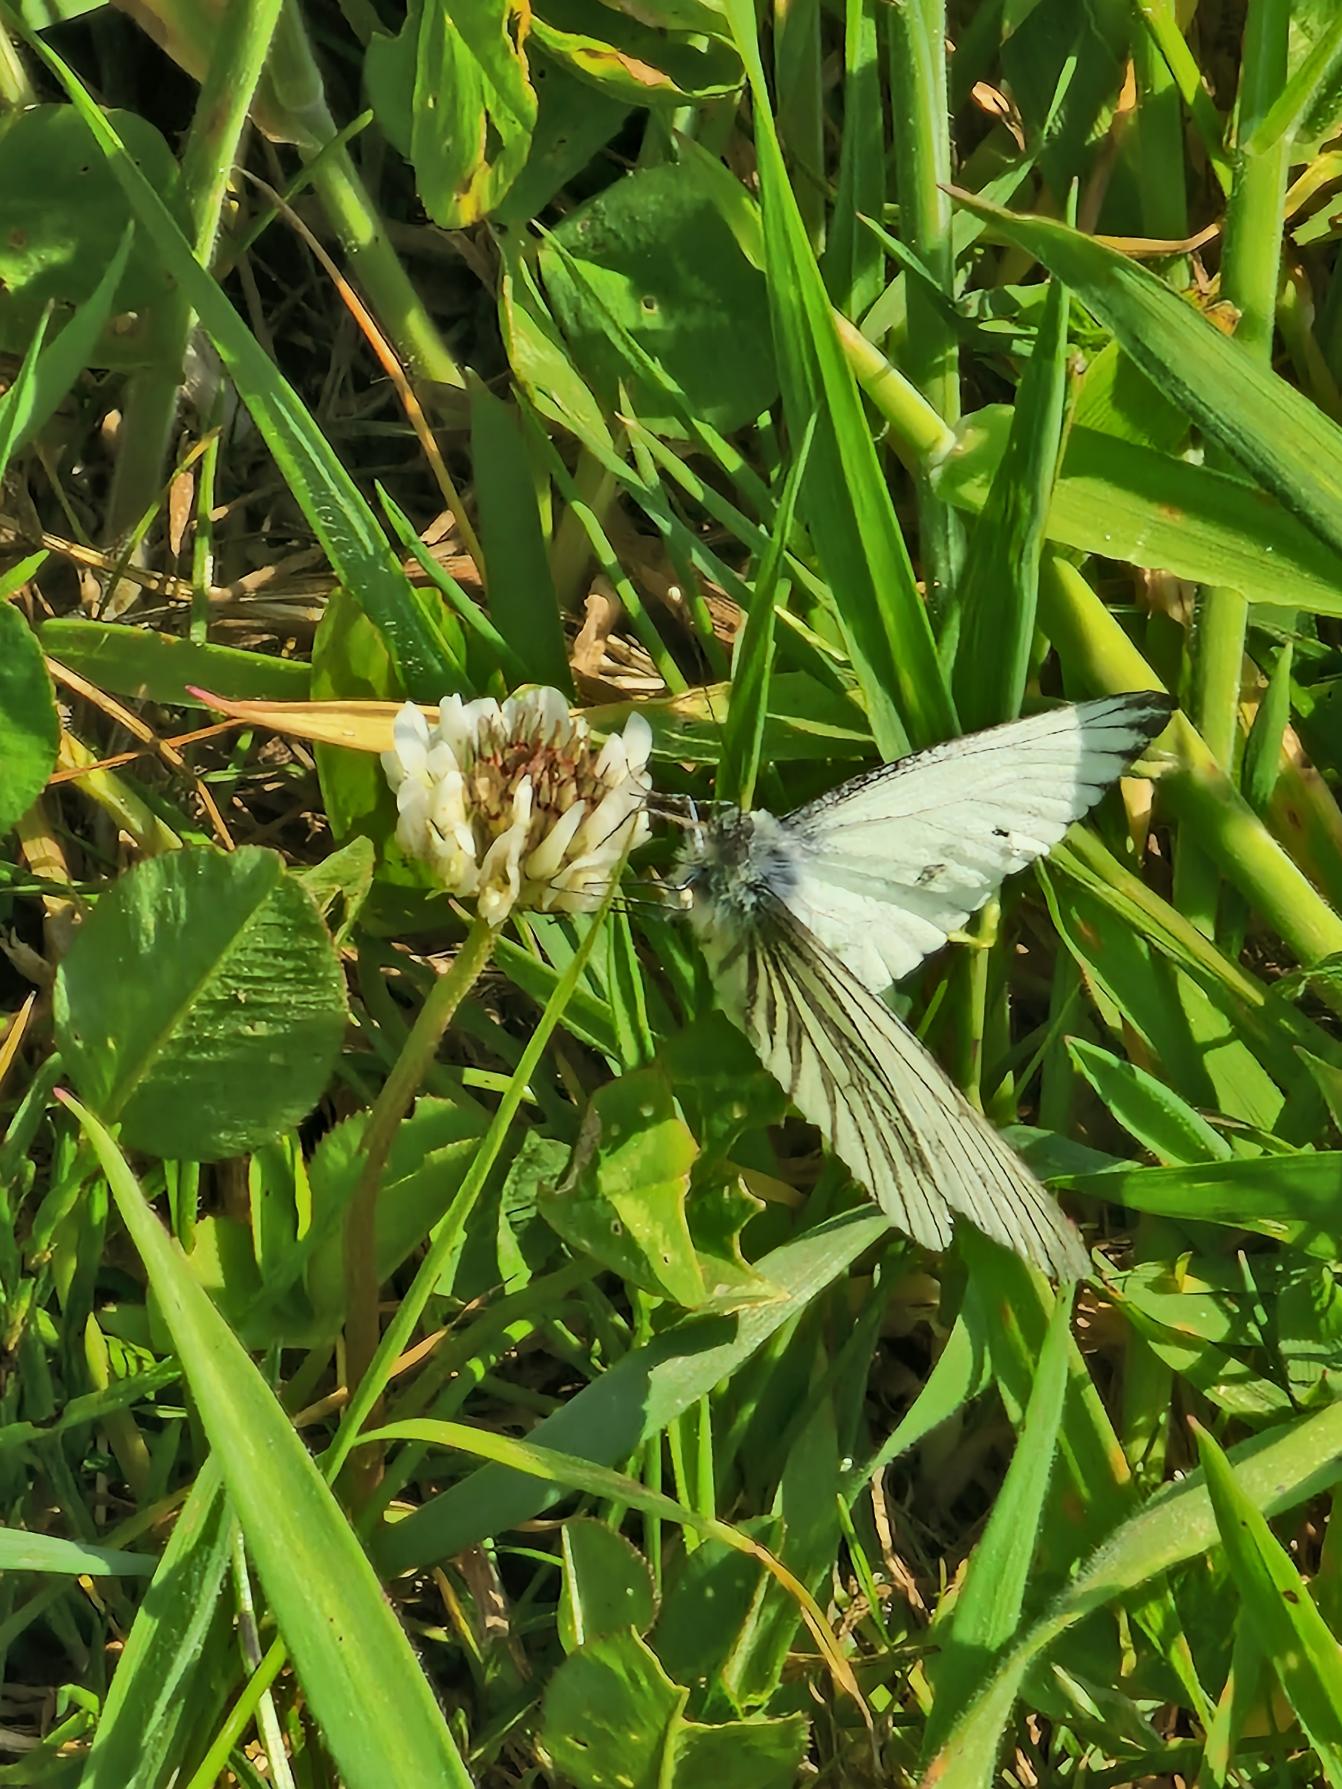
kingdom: Animalia
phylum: Arthropoda
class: Insecta
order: Lepidoptera
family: Pieridae
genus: Pieris
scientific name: Pieris napi
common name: Grønåret kålsommerfugl
